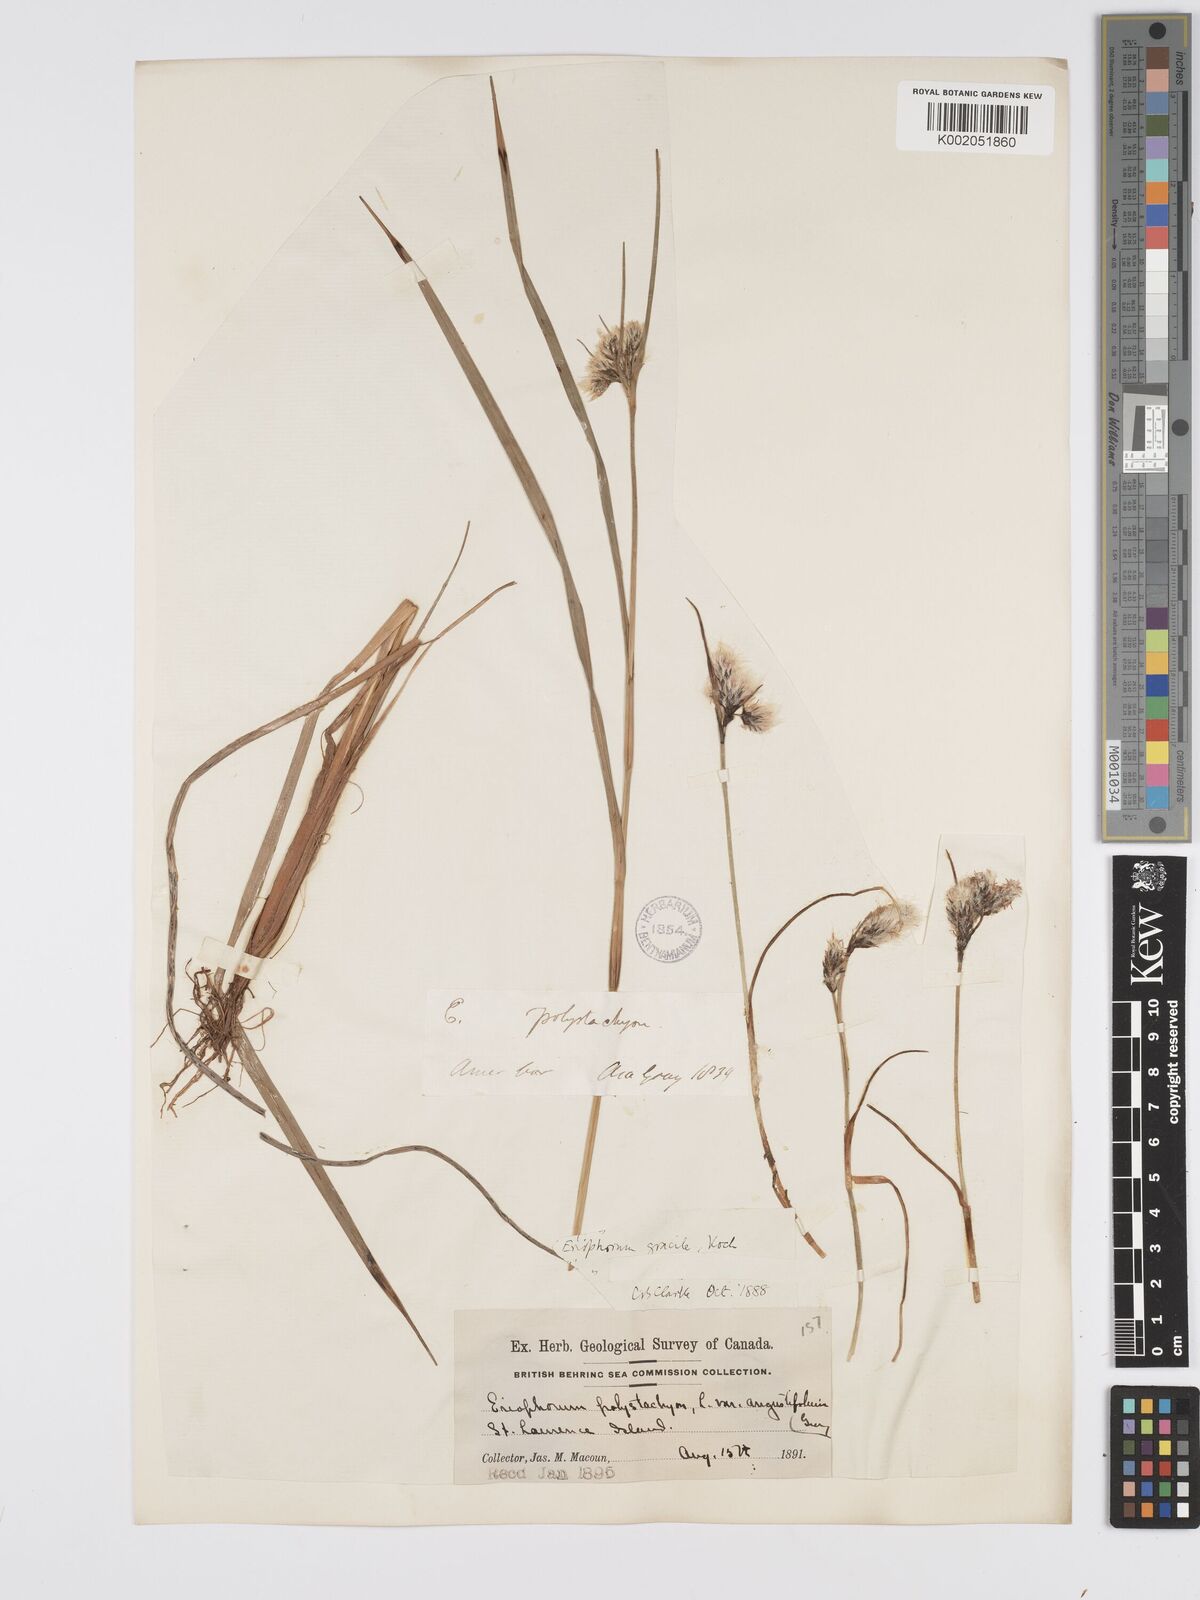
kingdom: Plantae
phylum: Tracheophyta
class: Liliopsida
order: Poales
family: Cyperaceae
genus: Eriophorum
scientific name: Eriophorum gracile
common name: Slender cottongrass
